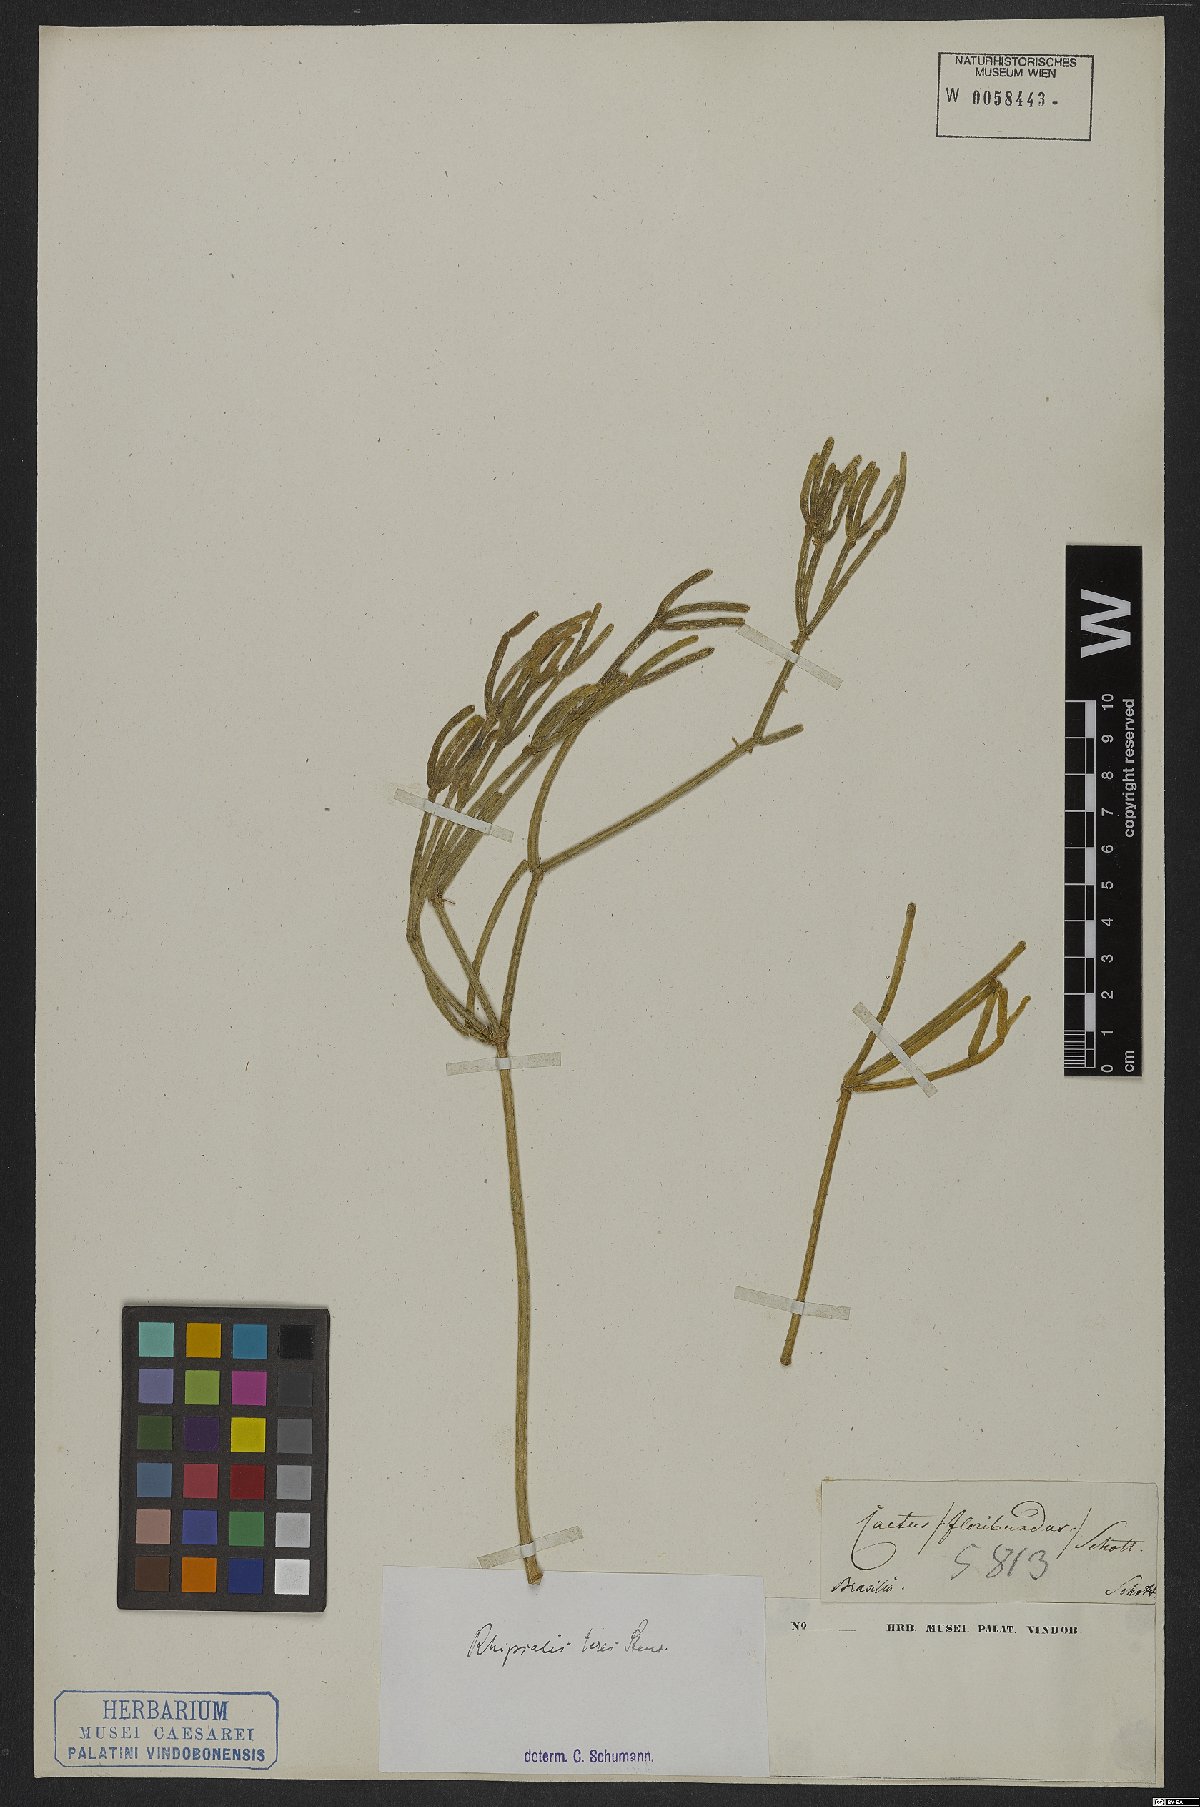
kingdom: Plantae
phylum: Tracheophyta
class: Magnoliopsida
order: Caryophyllales
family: Cactaceae
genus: Rhipsalis
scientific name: Rhipsalis teres
